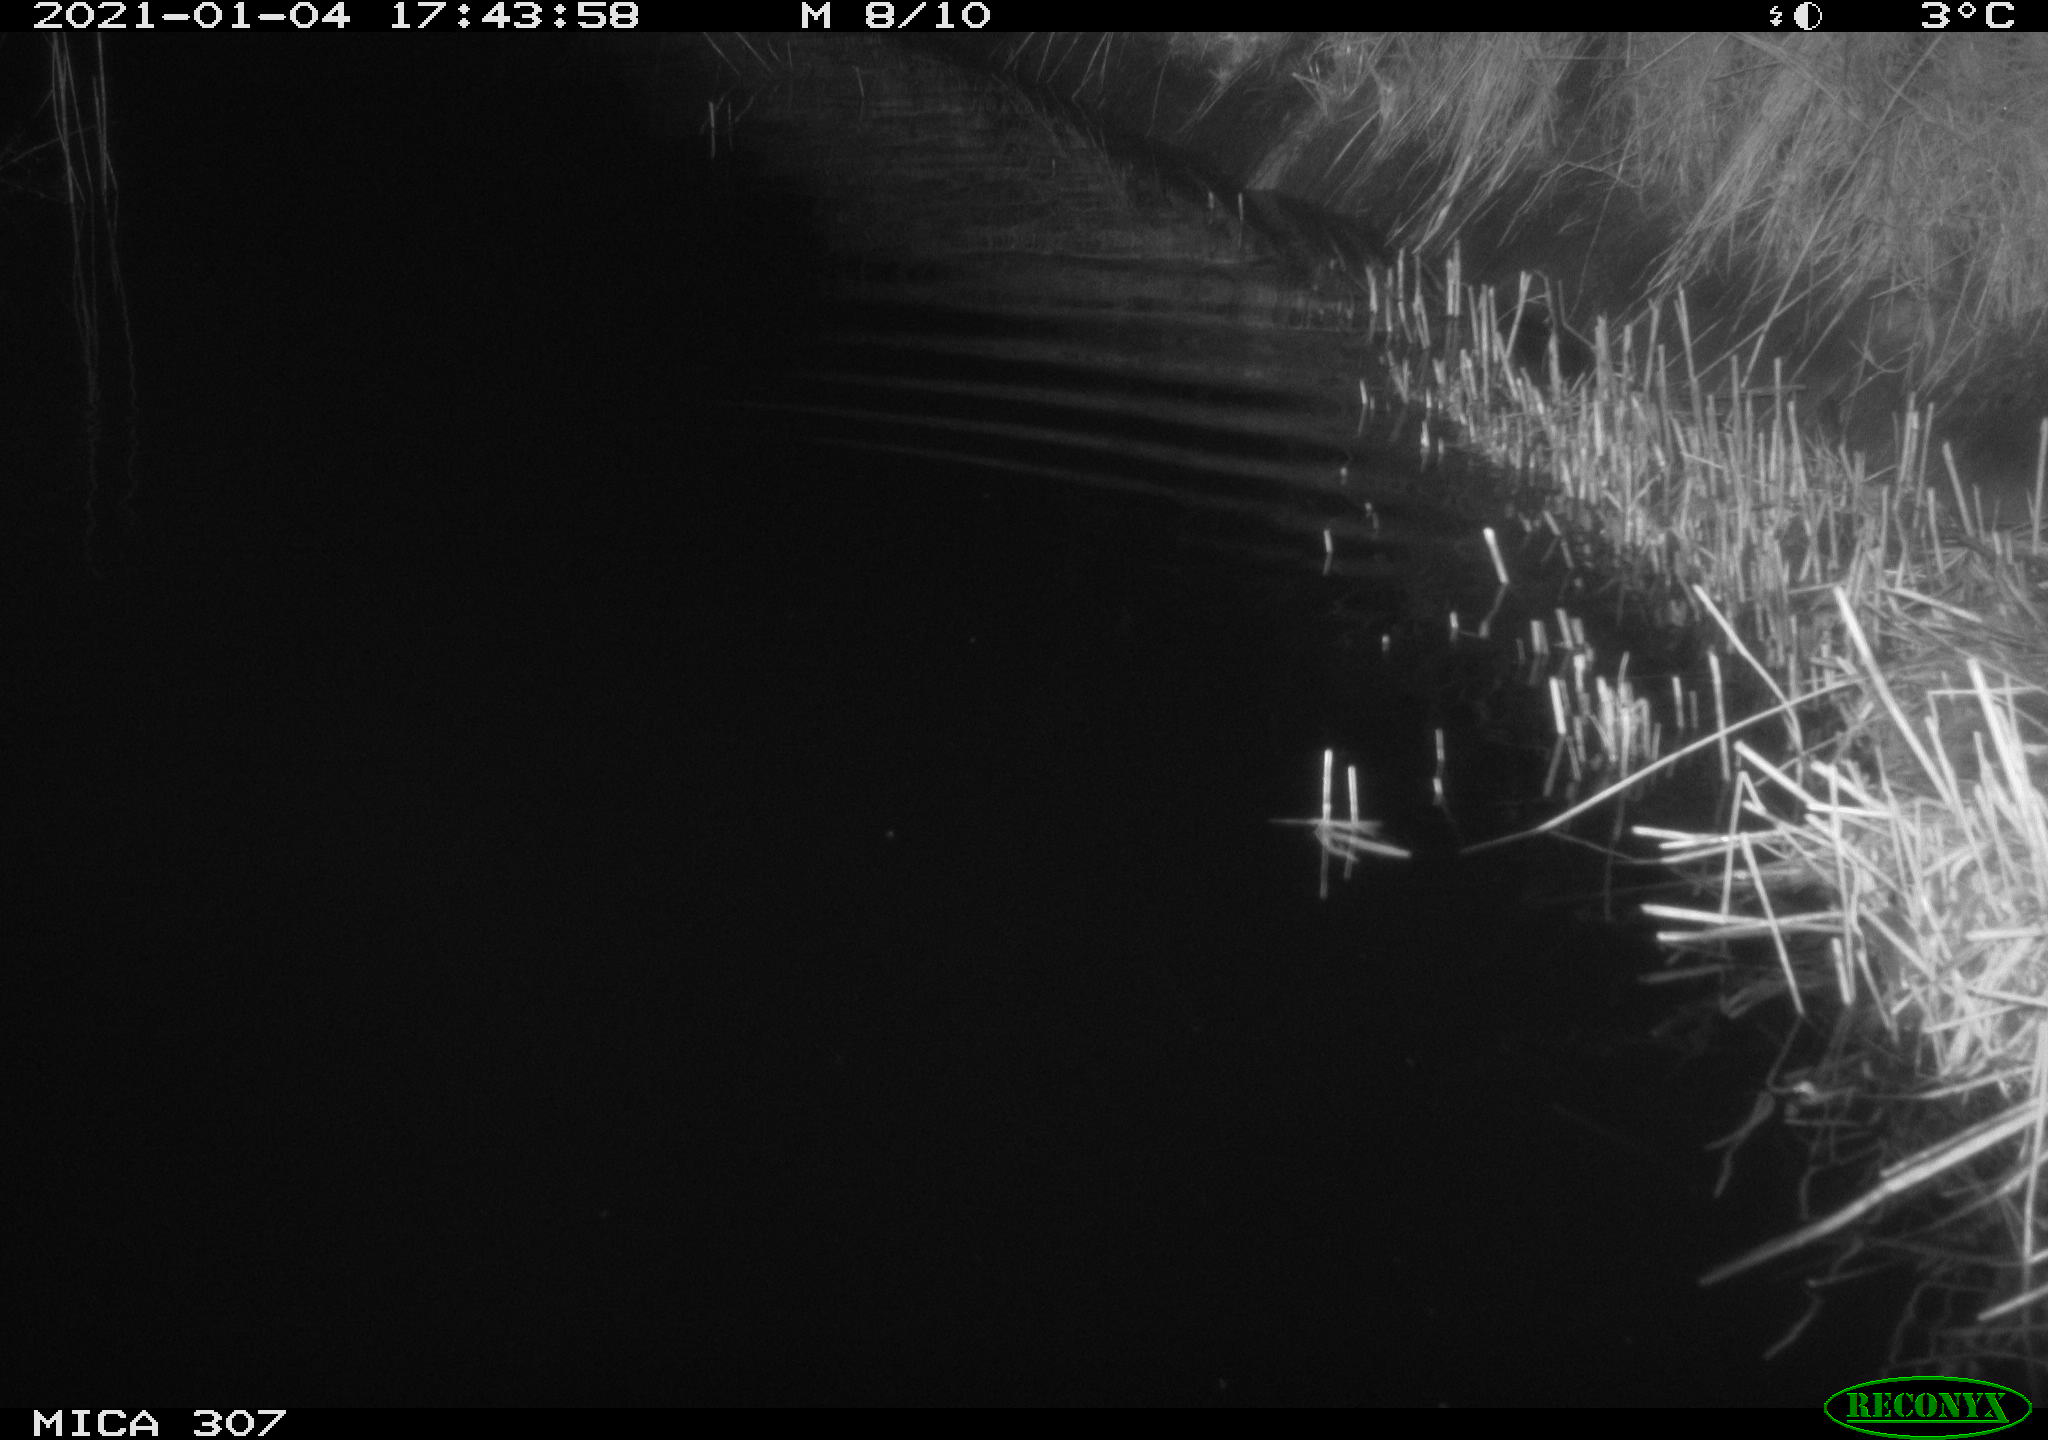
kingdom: Animalia
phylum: Chordata
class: Mammalia
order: Rodentia
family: Muridae
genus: Rattus
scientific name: Rattus norvegicus
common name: Brown rat
